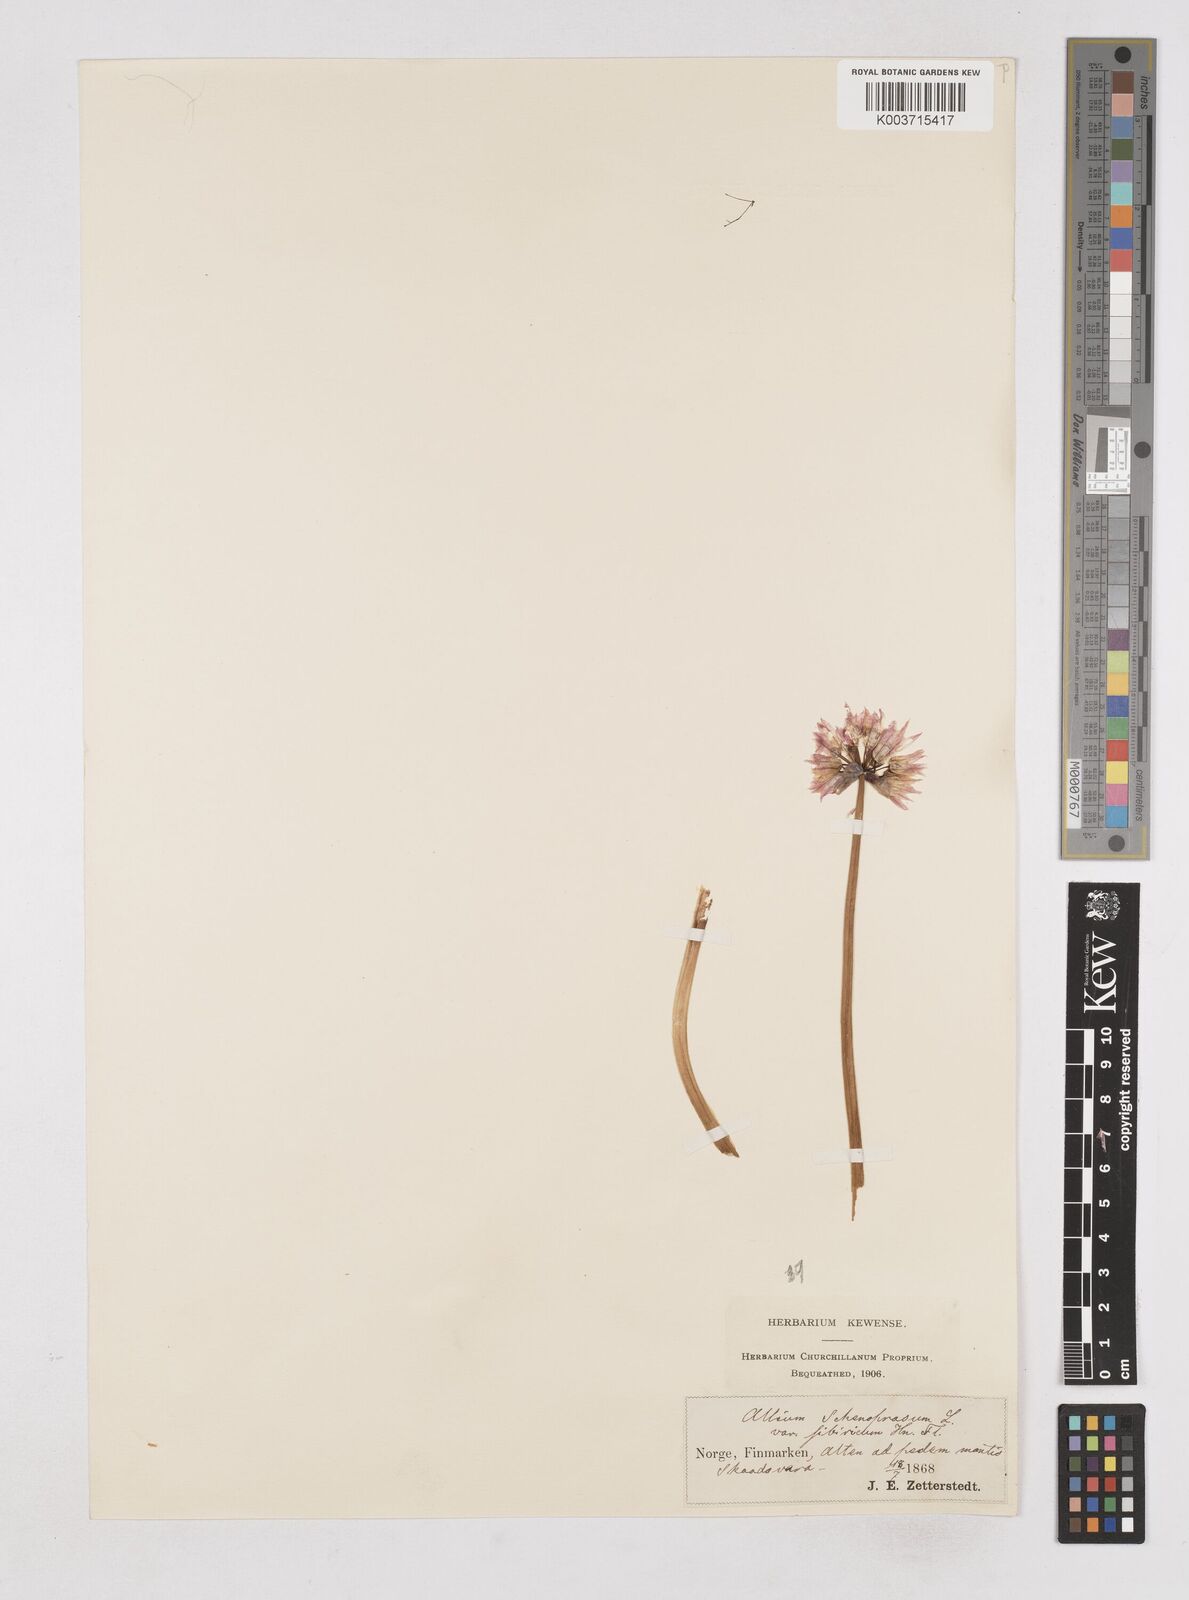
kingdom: Plantae
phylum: Tracheophyta
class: Liliopsida
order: Asparagales
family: Amaryllidaceae
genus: Allium
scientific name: Allium schoenoprasum
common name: Chives
